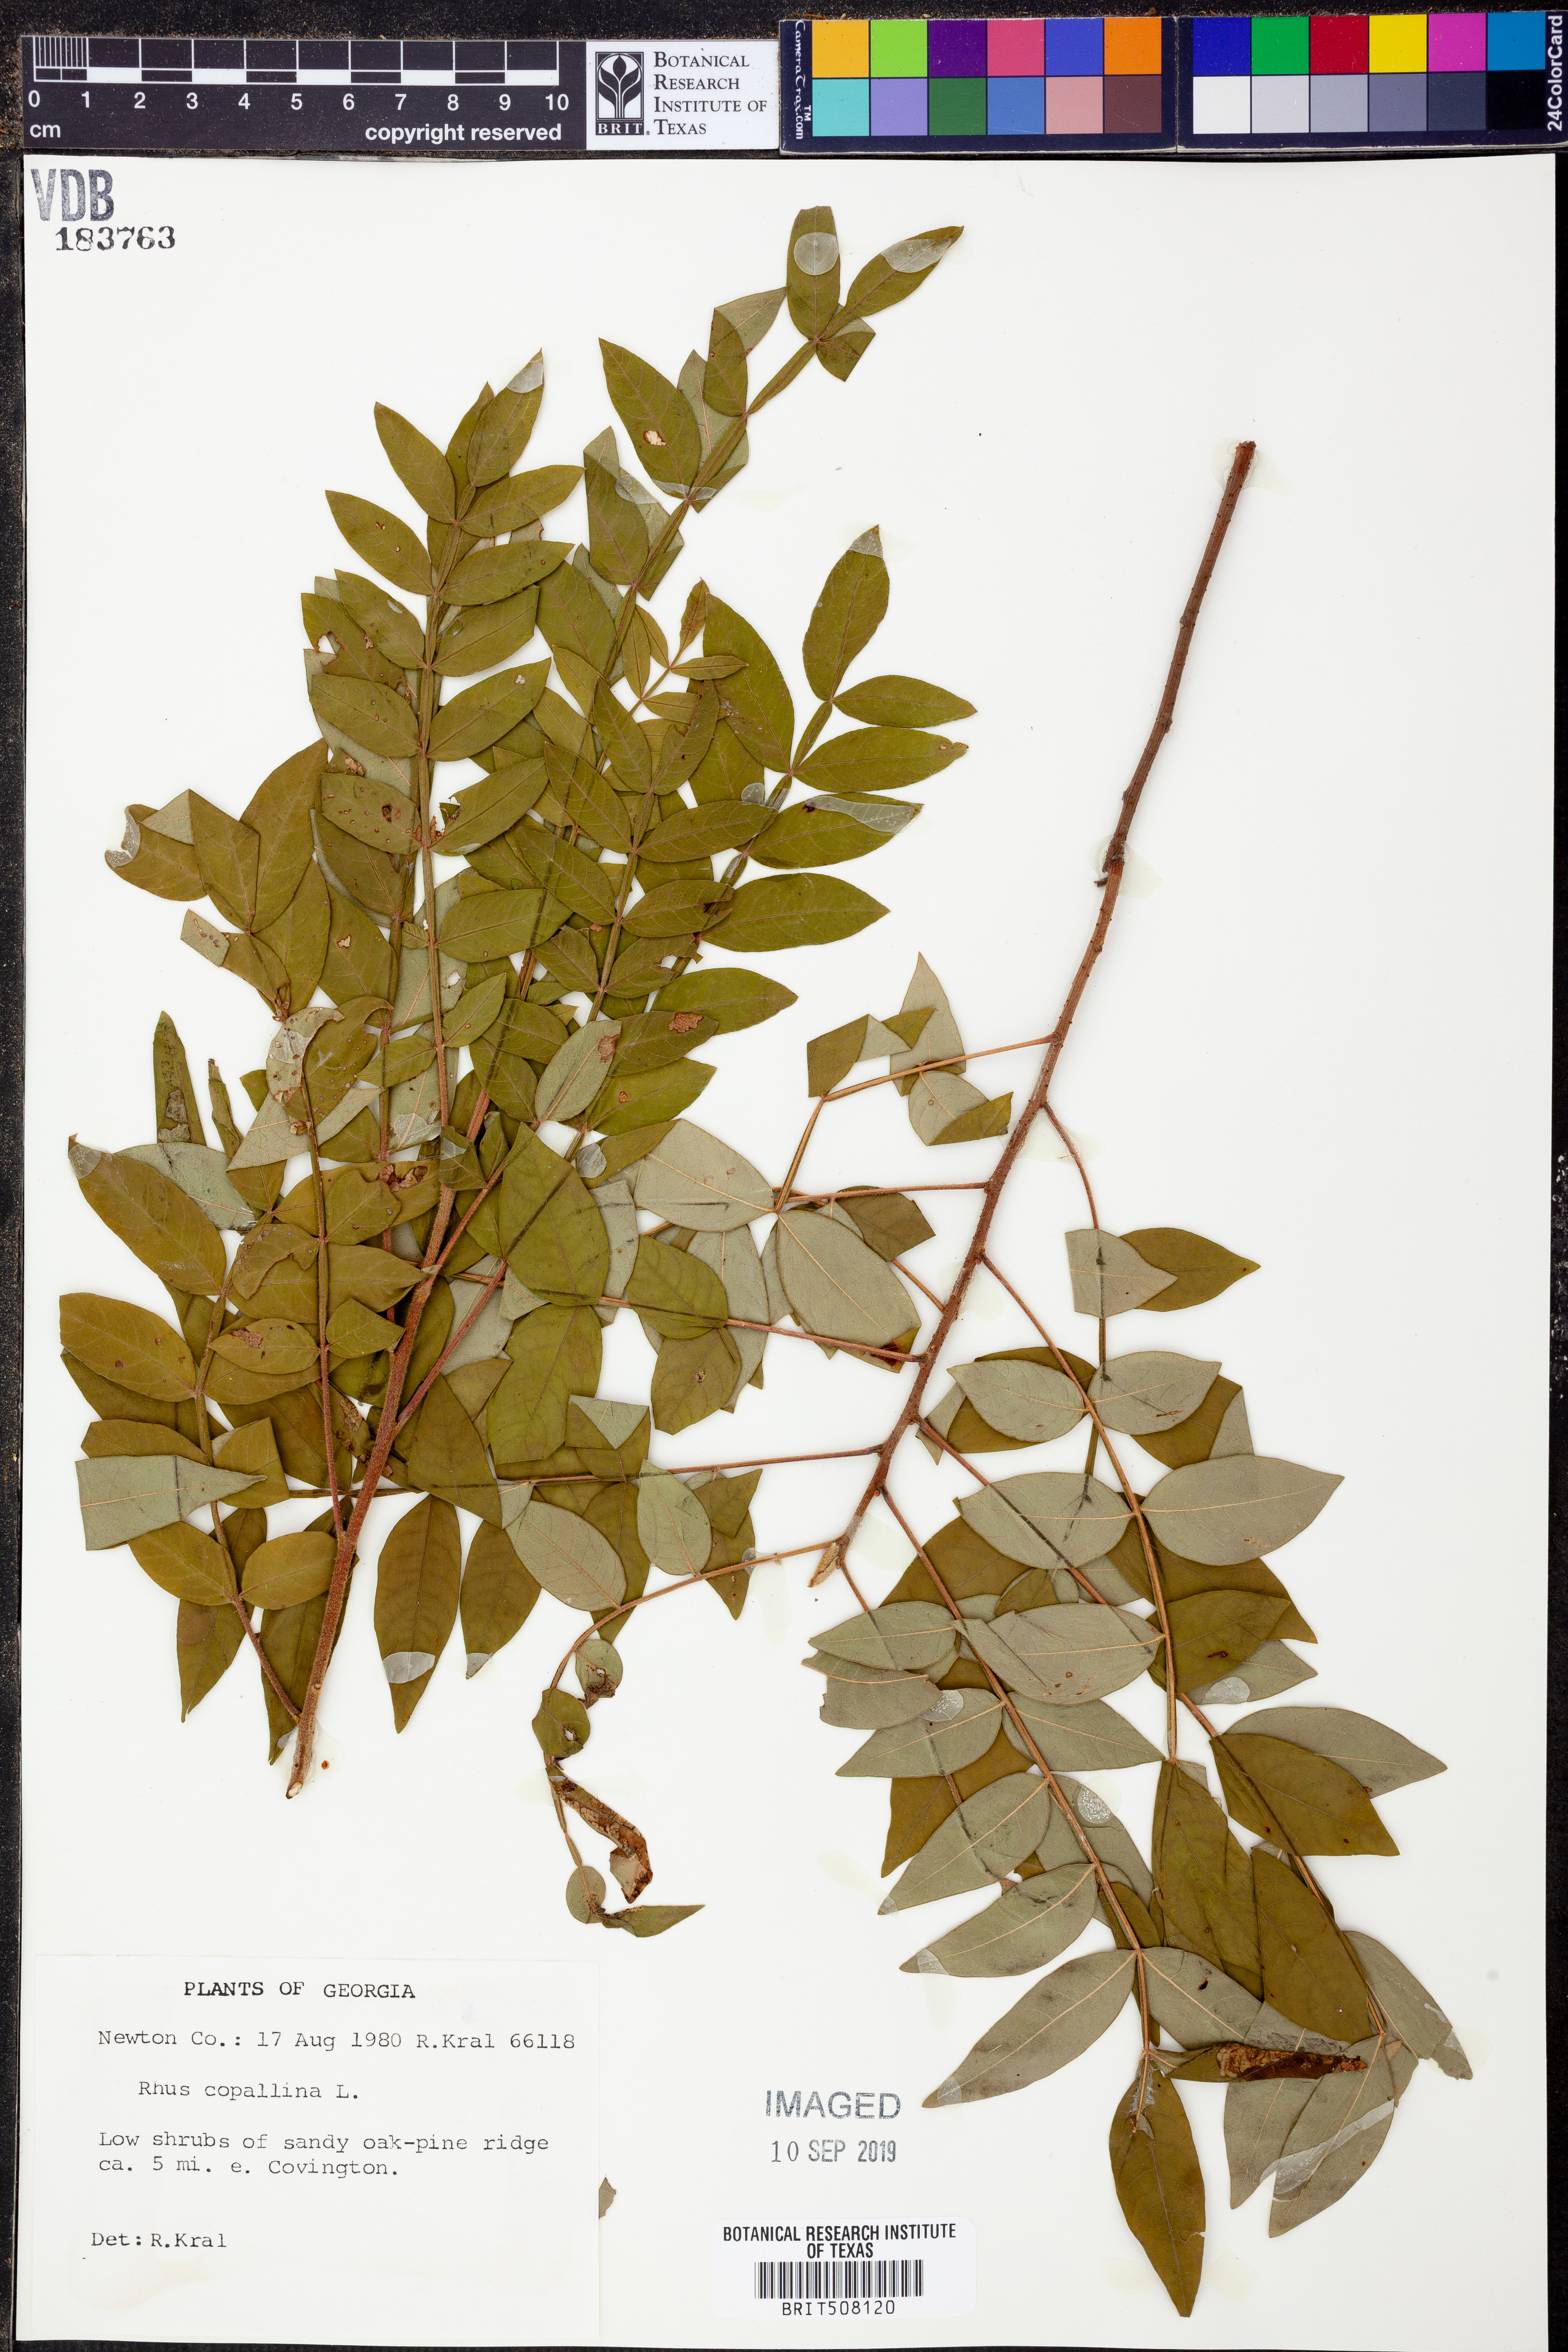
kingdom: Plantae
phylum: Tracheophyta
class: Magnoliopsida
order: Sapindales
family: Anacardiaceae
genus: Rhus
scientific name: Rhus copallina
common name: Shining sumac
